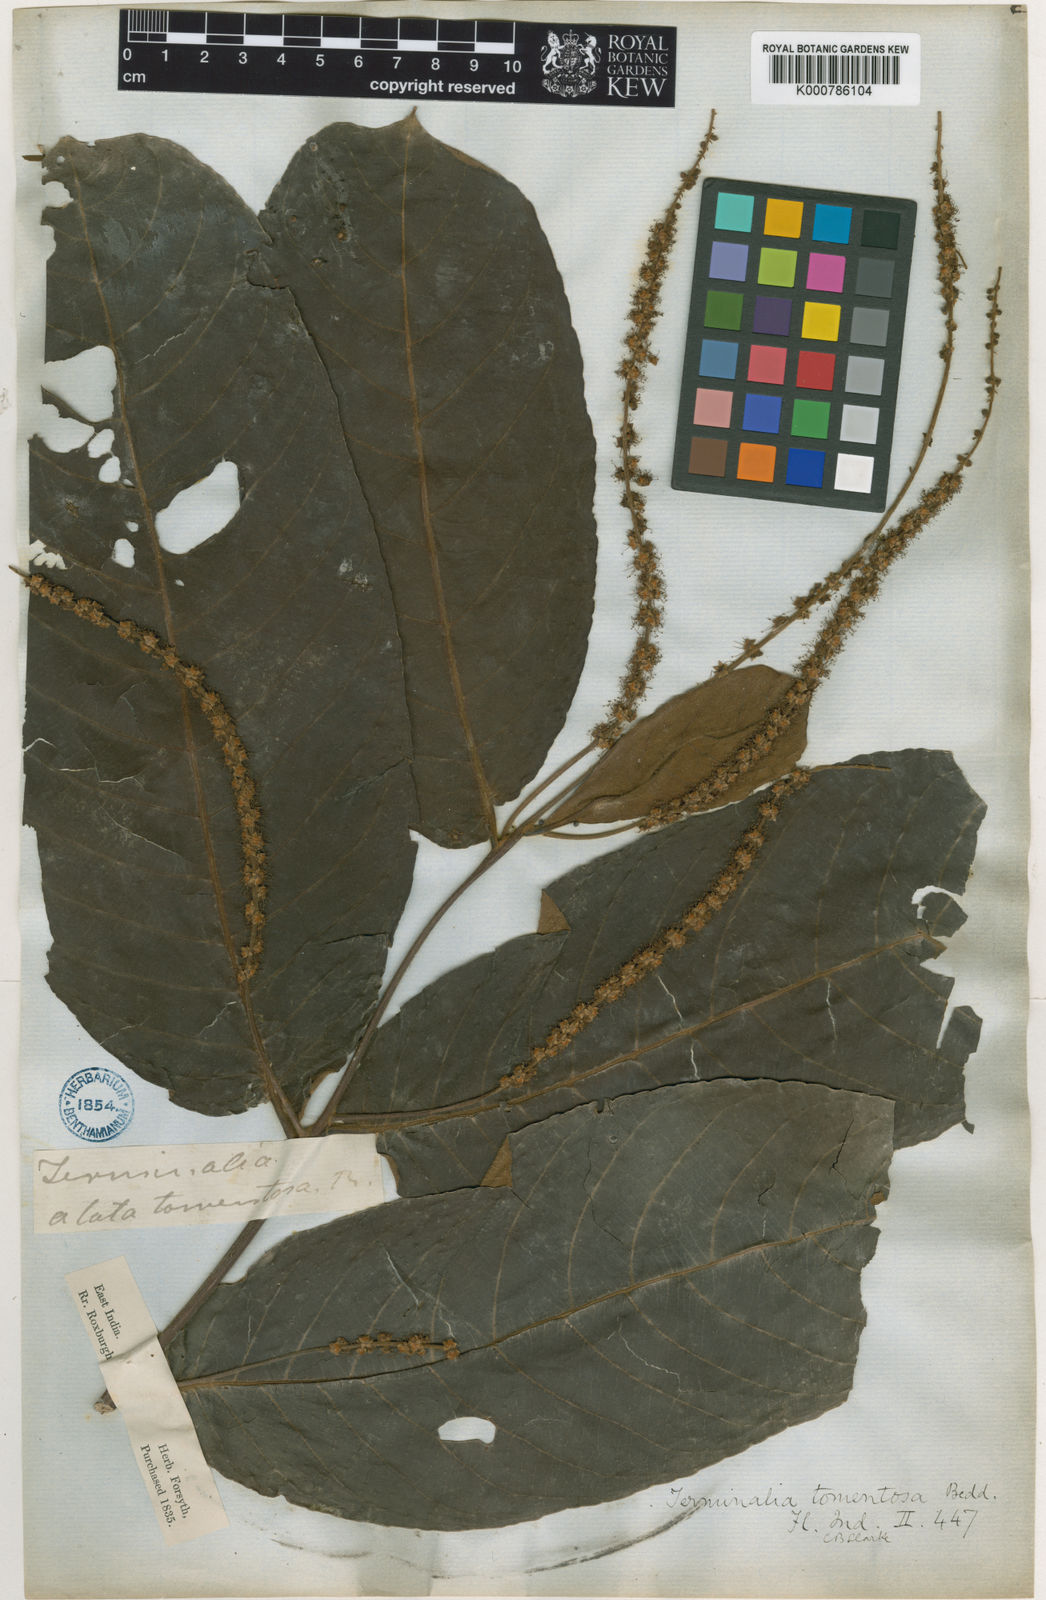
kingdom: Plantae
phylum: Tracheophyta
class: Magnoliopsida
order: Myrtales
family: Combretaceae
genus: Terminalia
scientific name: Terminalia
